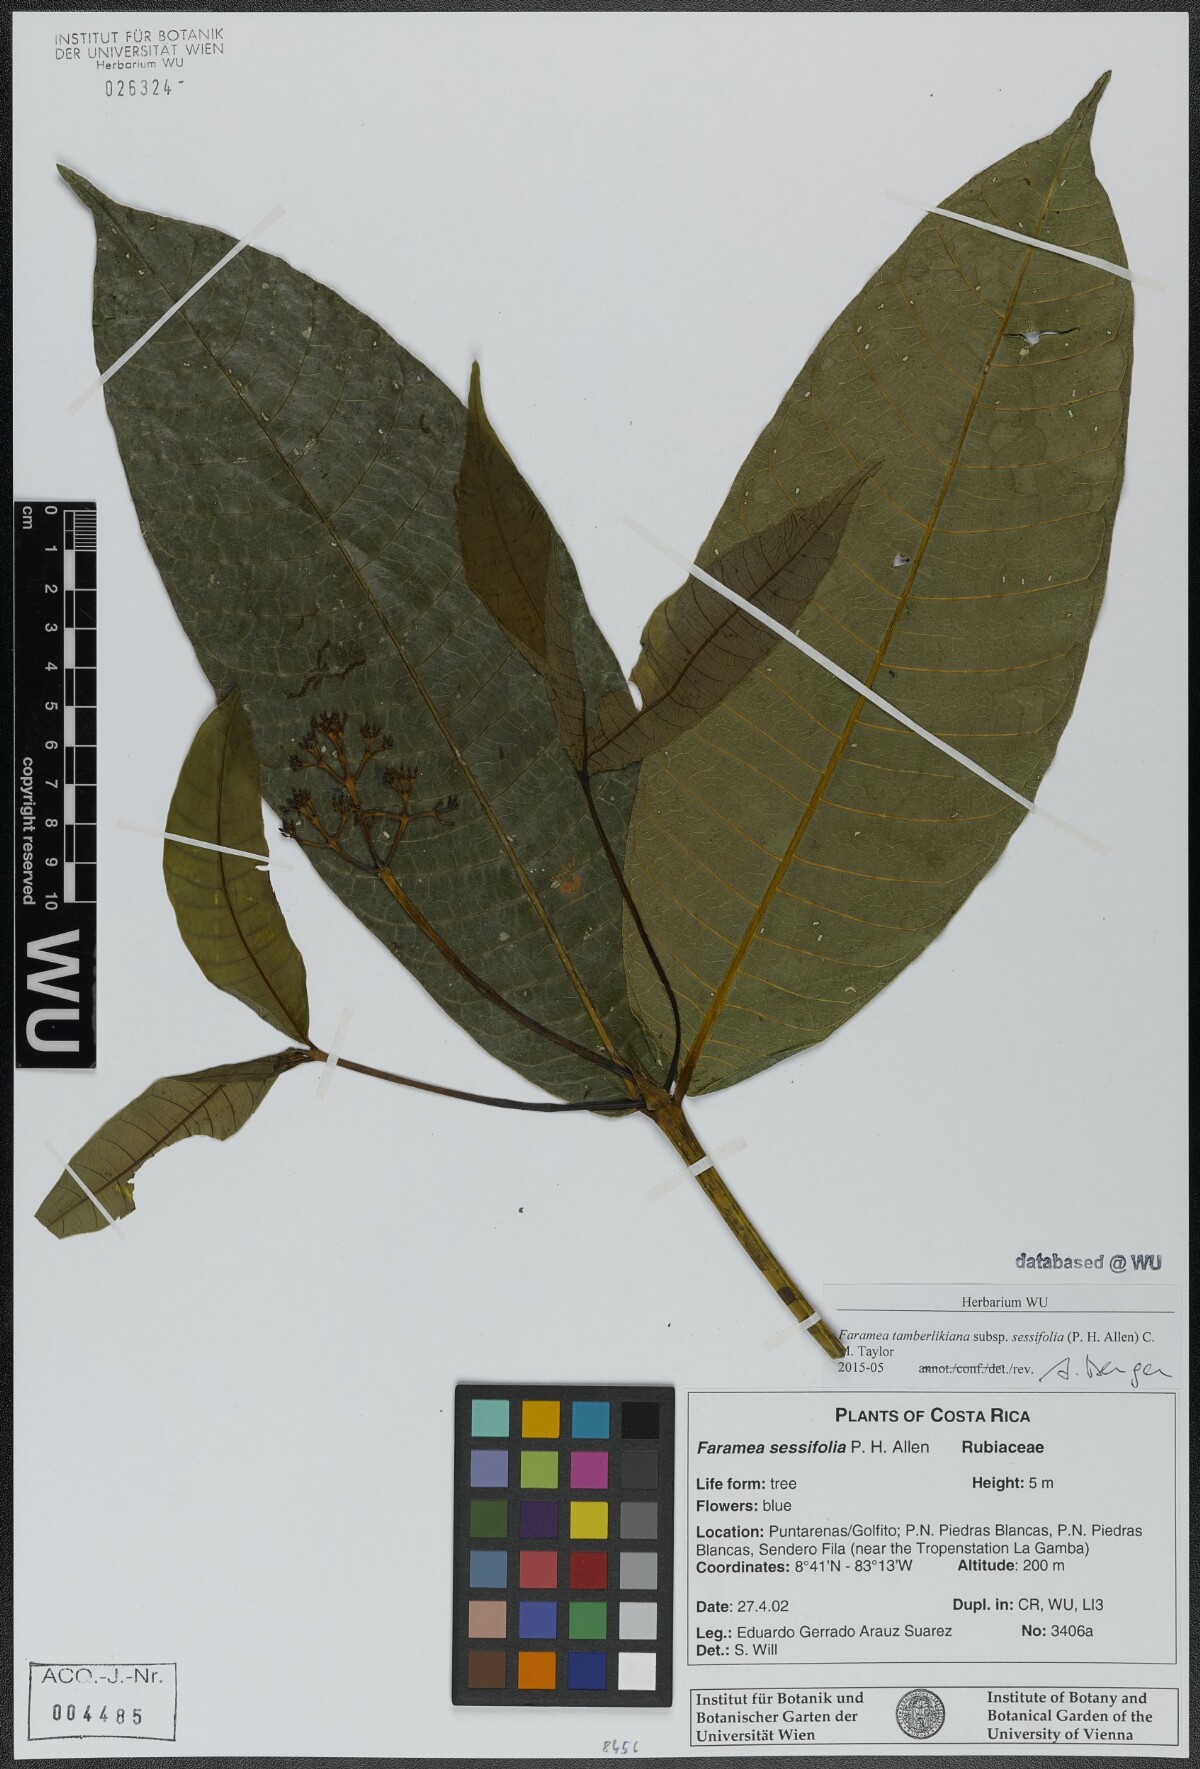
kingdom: Plantae
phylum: Tracheophyta
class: Magnoliopsida
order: Gentianales
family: Rubiaceae
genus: Faramea
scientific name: Faramea tamberlikiana
